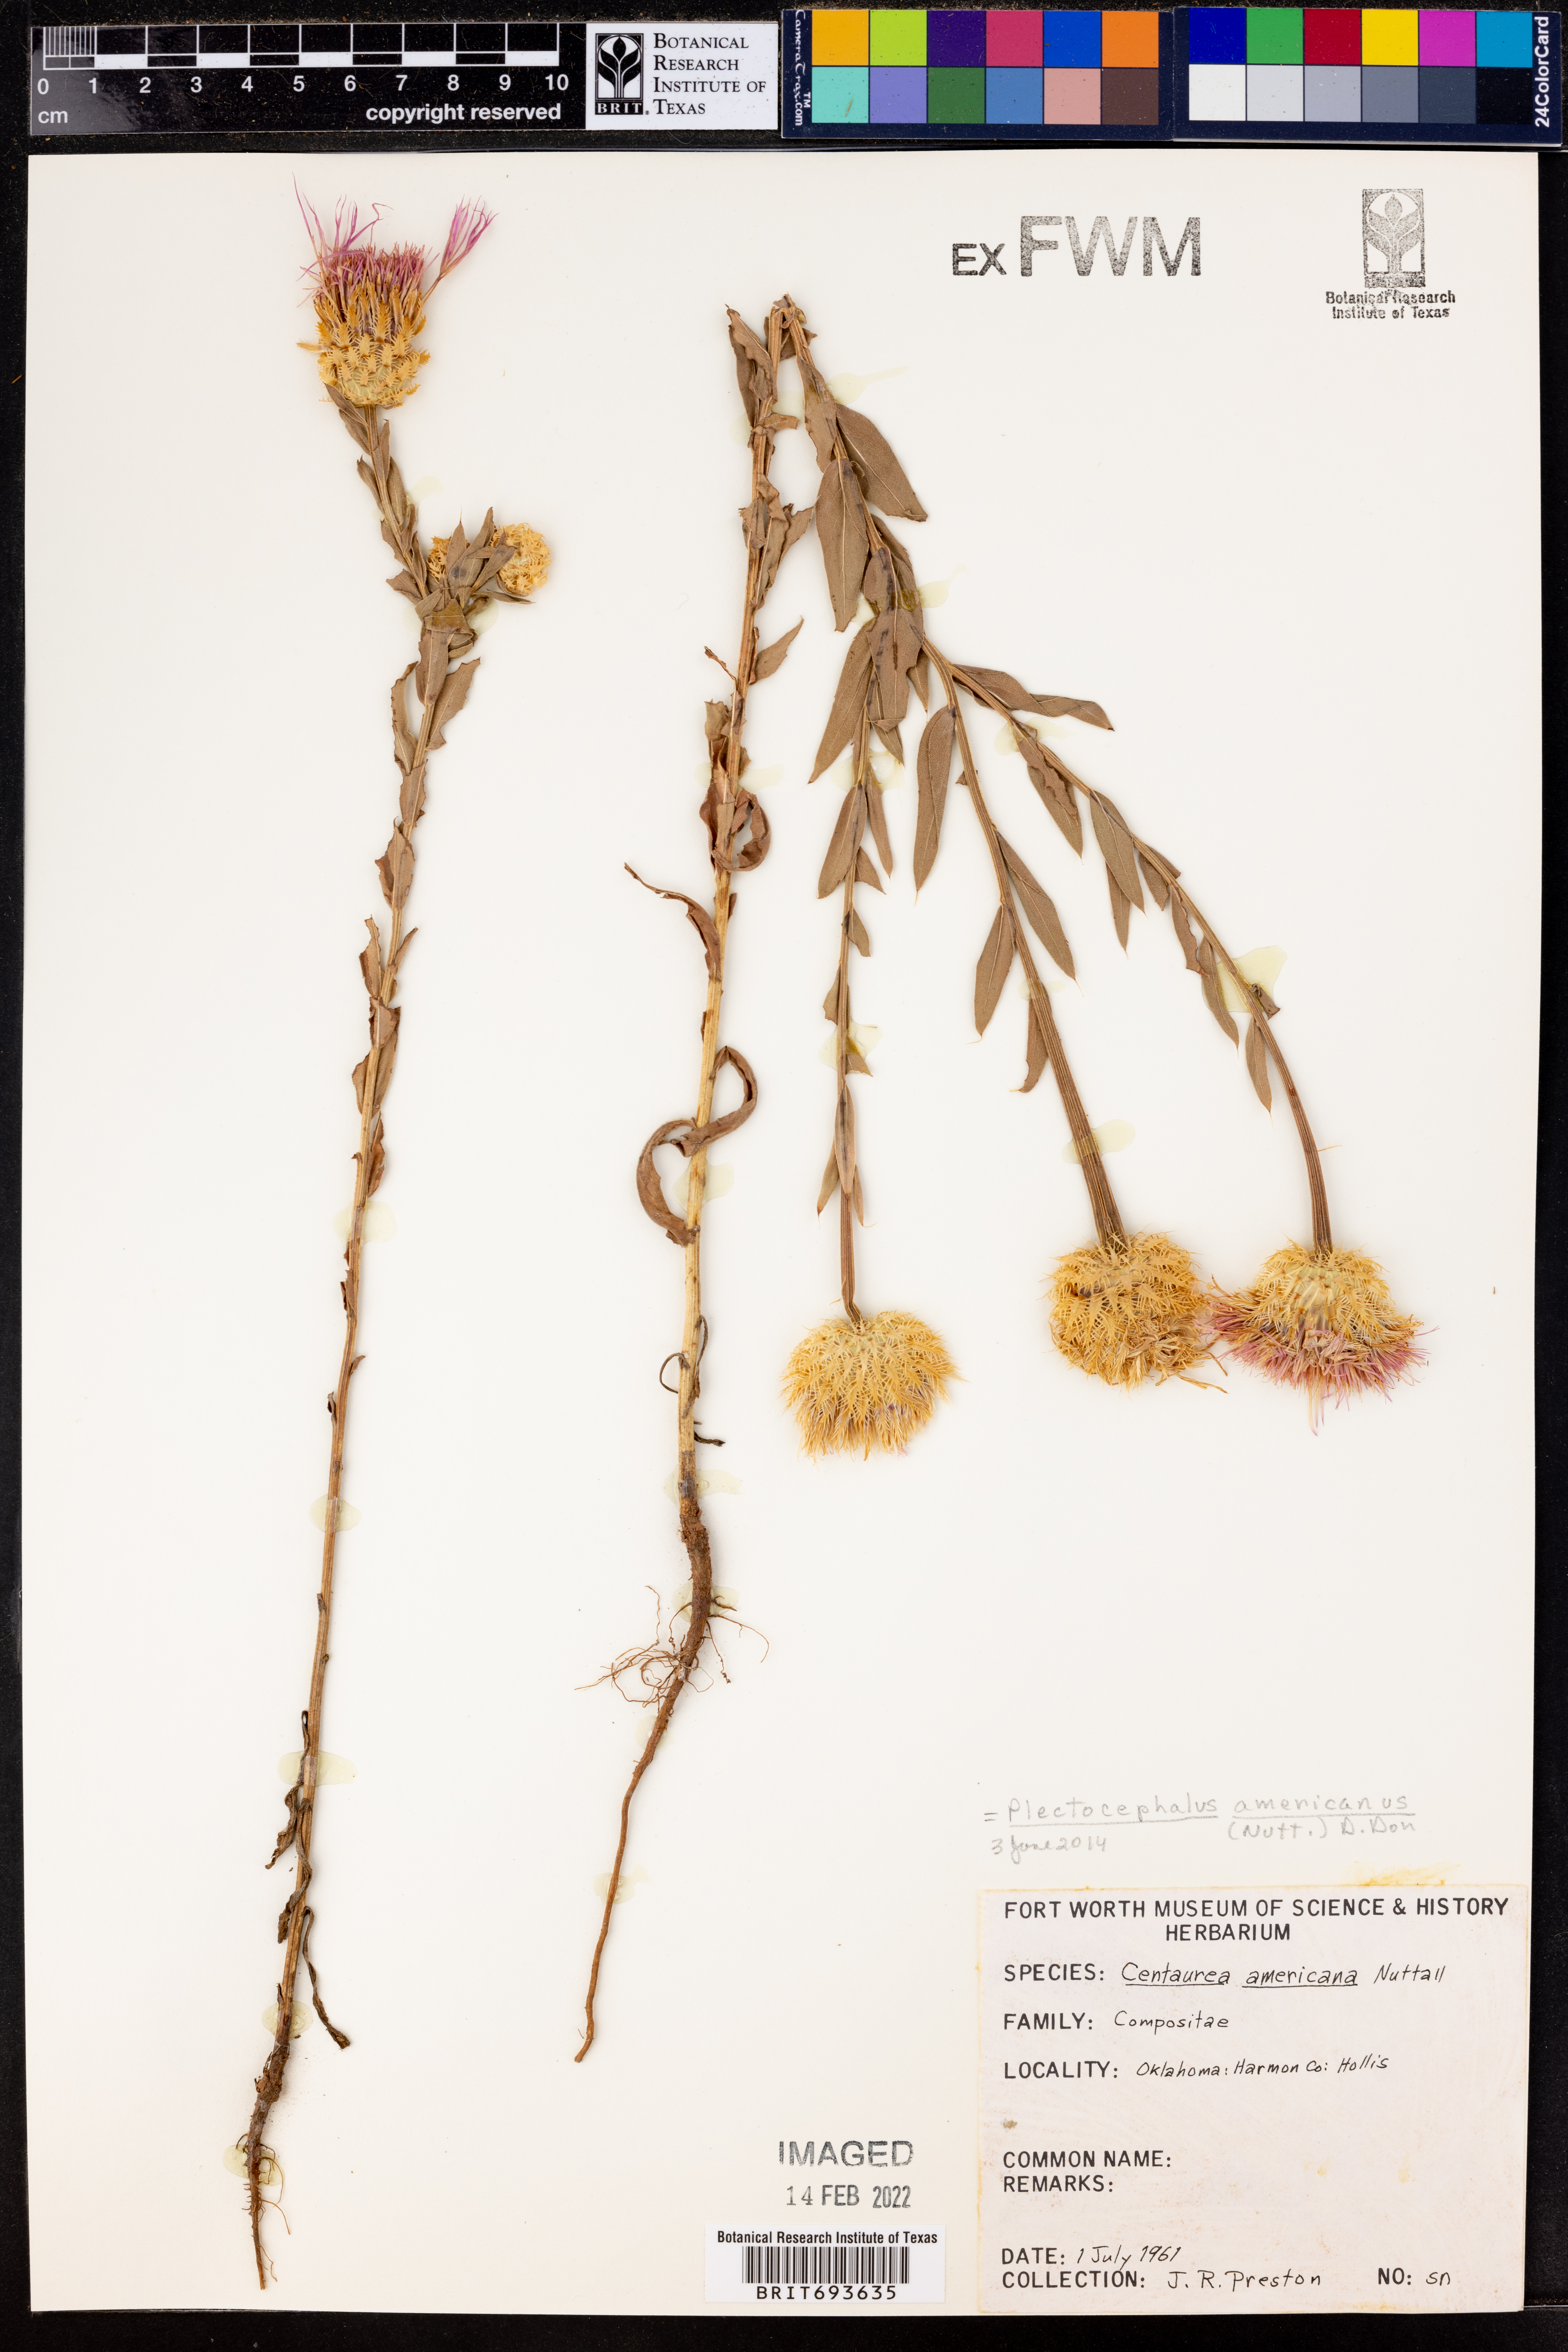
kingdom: Plantae
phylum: Tracheophyta
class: Magnoliopsida
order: Asterales
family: Asteraceae
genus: Plectocephalus
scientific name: Plectocephalus americanus
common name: American basket-flower
